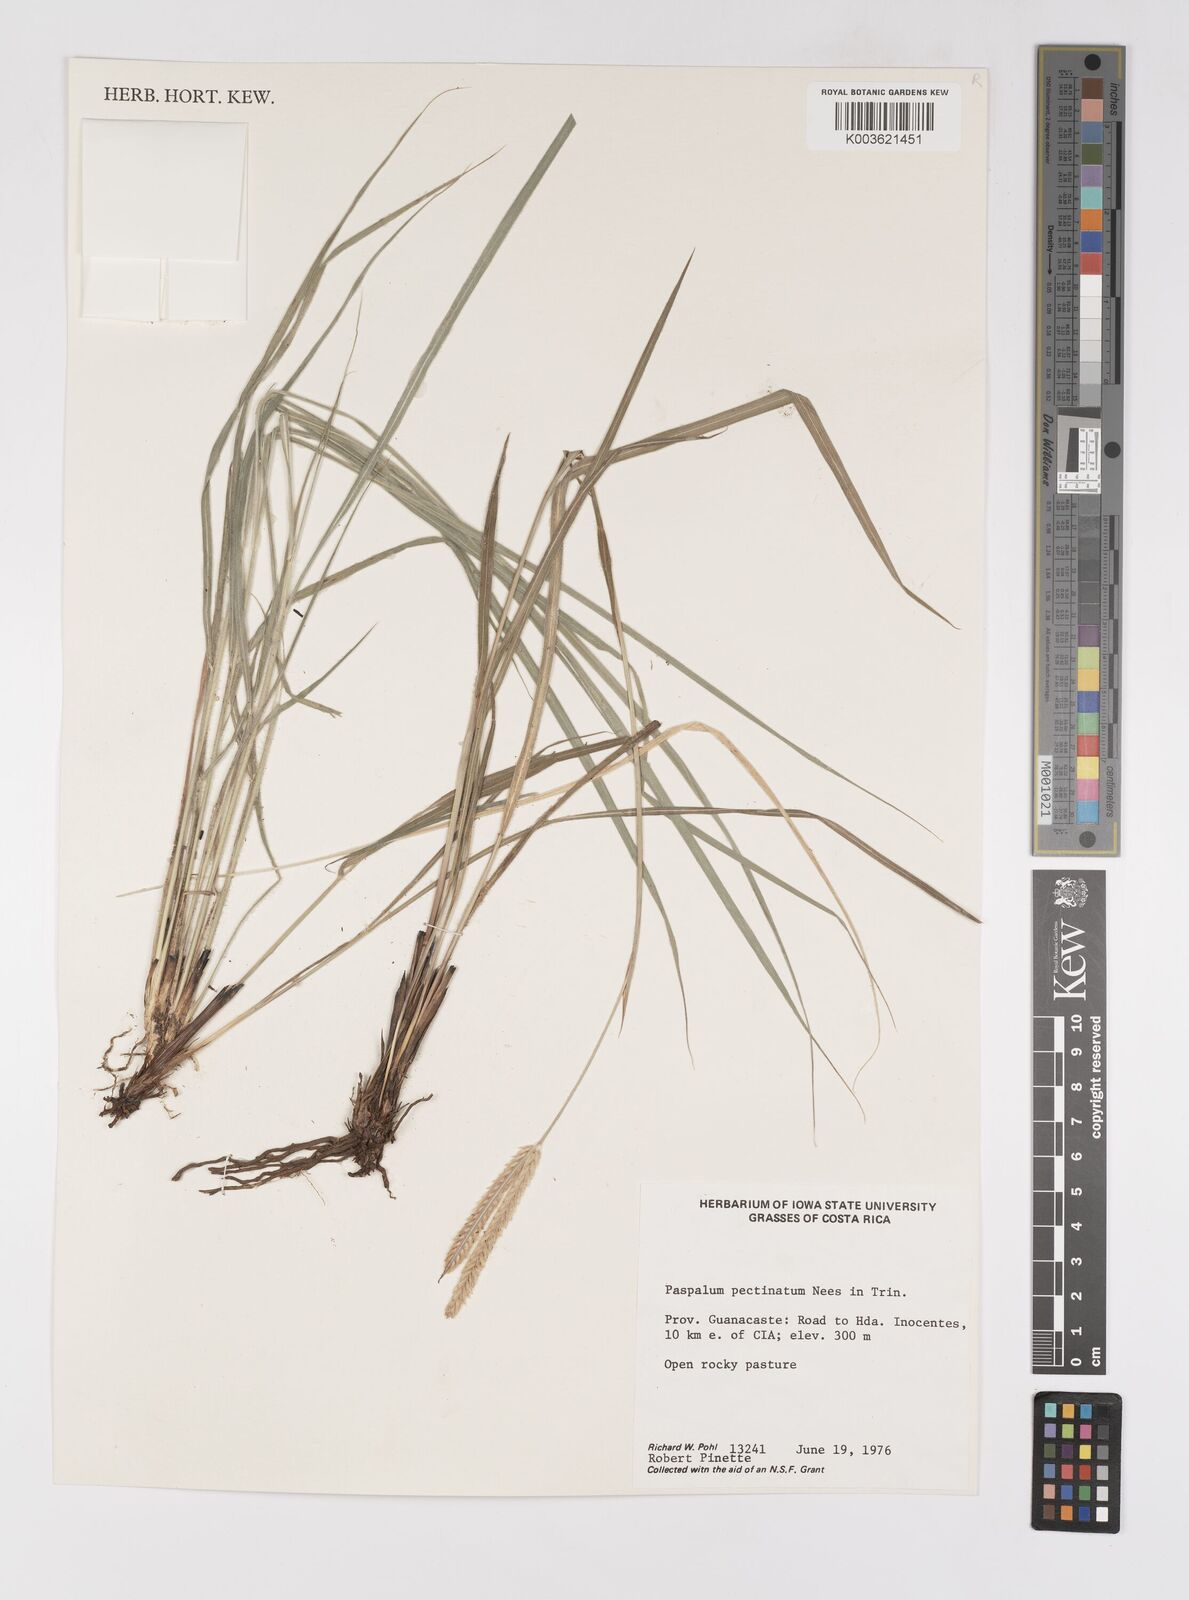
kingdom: Plantae
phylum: Tracheophyta
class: Liliopsida
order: Poales
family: Poaceae
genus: Paspalum
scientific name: Paspalum pectinatum
